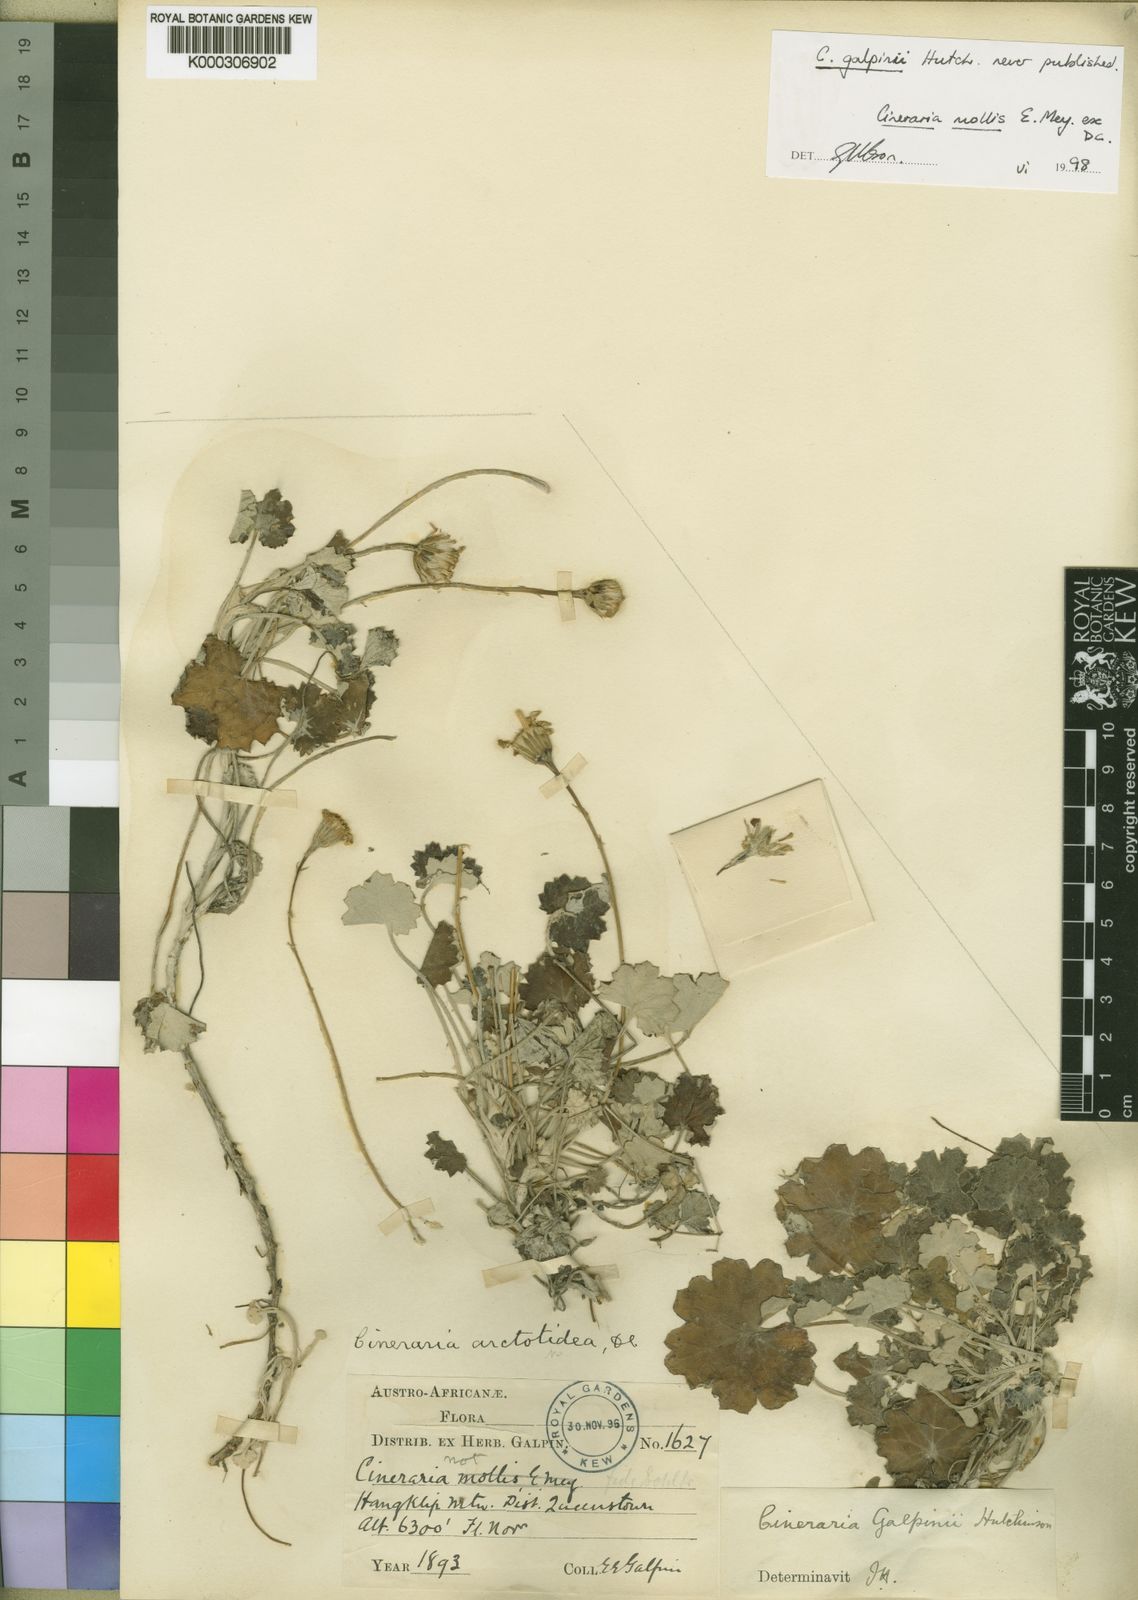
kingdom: Plantae
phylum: Tracheophyta
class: Magnoliopsida
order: Asterales
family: Asteraceae
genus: Cineraria
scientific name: Cineraria mollis
